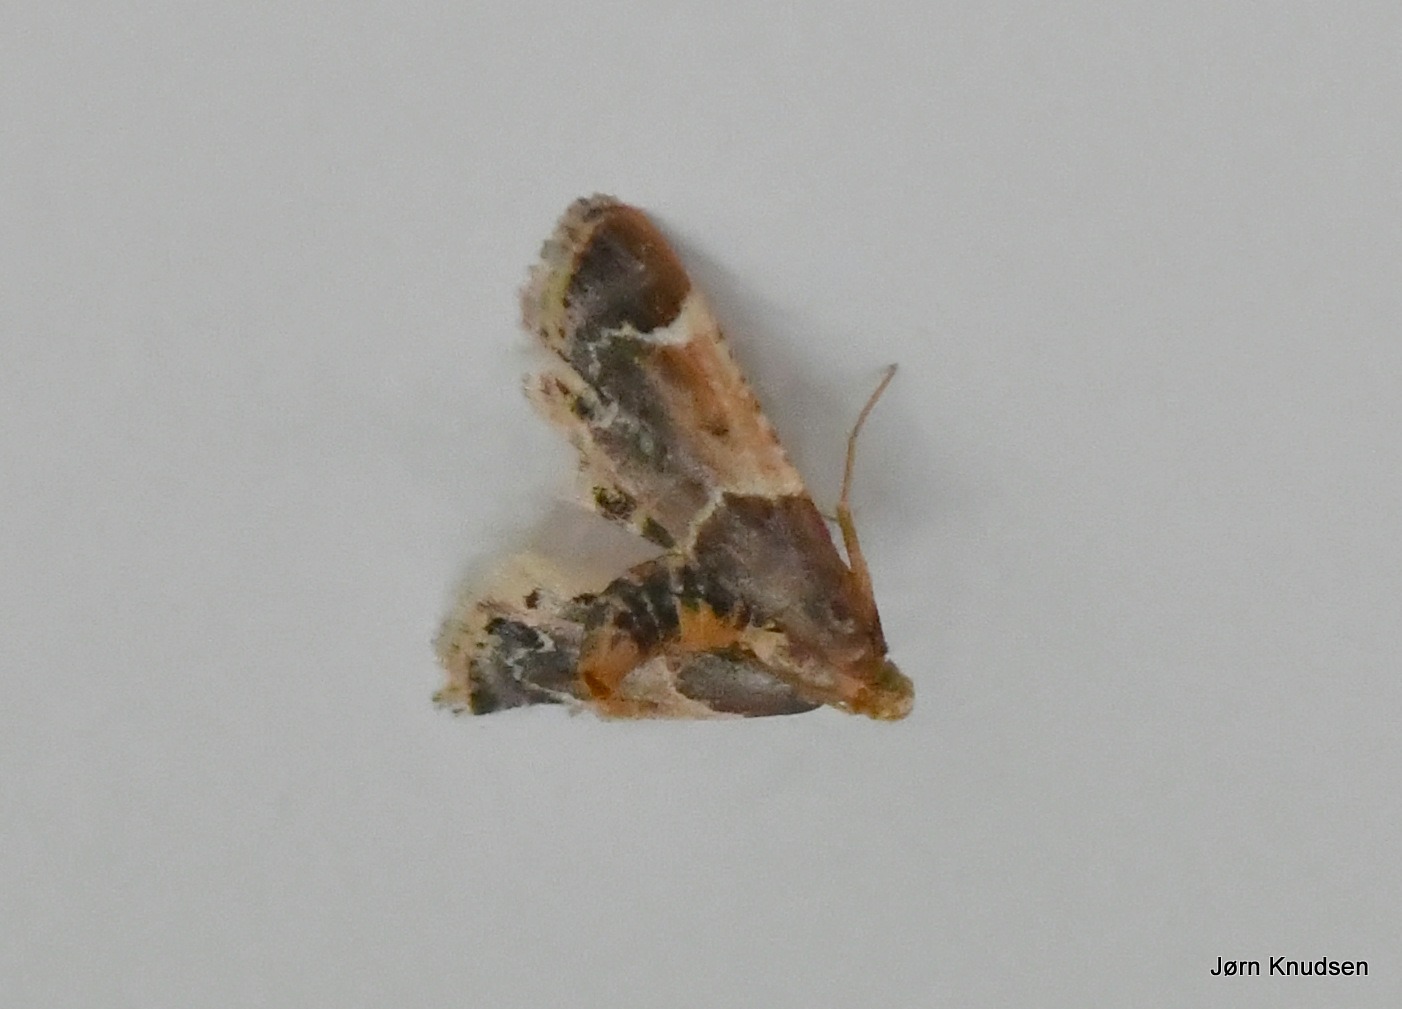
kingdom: Animalia
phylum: Arthropoda
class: Insecta
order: Lepidoptera
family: Pyralidae
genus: Pyralis
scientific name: Pyralis farinalis
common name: Stort melmøl
